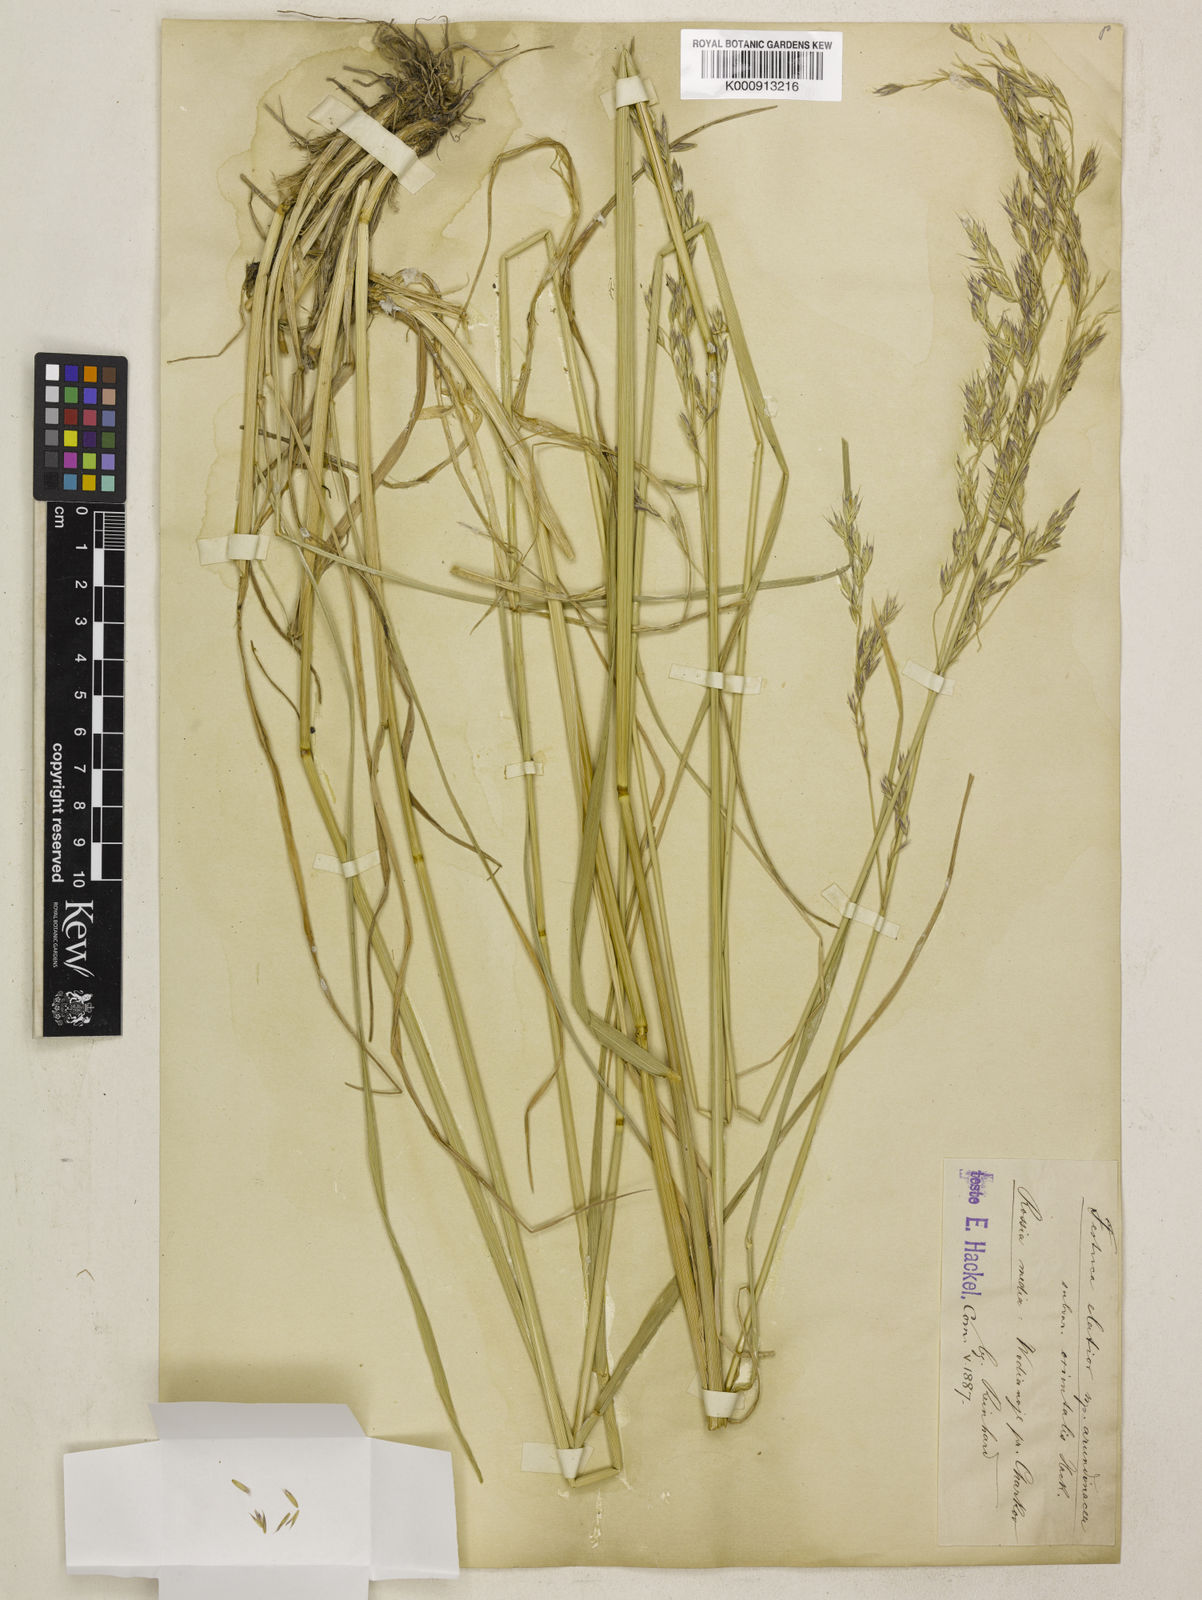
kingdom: Plantae
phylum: Tracheophyta
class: Liliopsida
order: Poales
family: Poaceae
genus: Lolium
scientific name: Lolium arundinaceum
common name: Reed fescue
